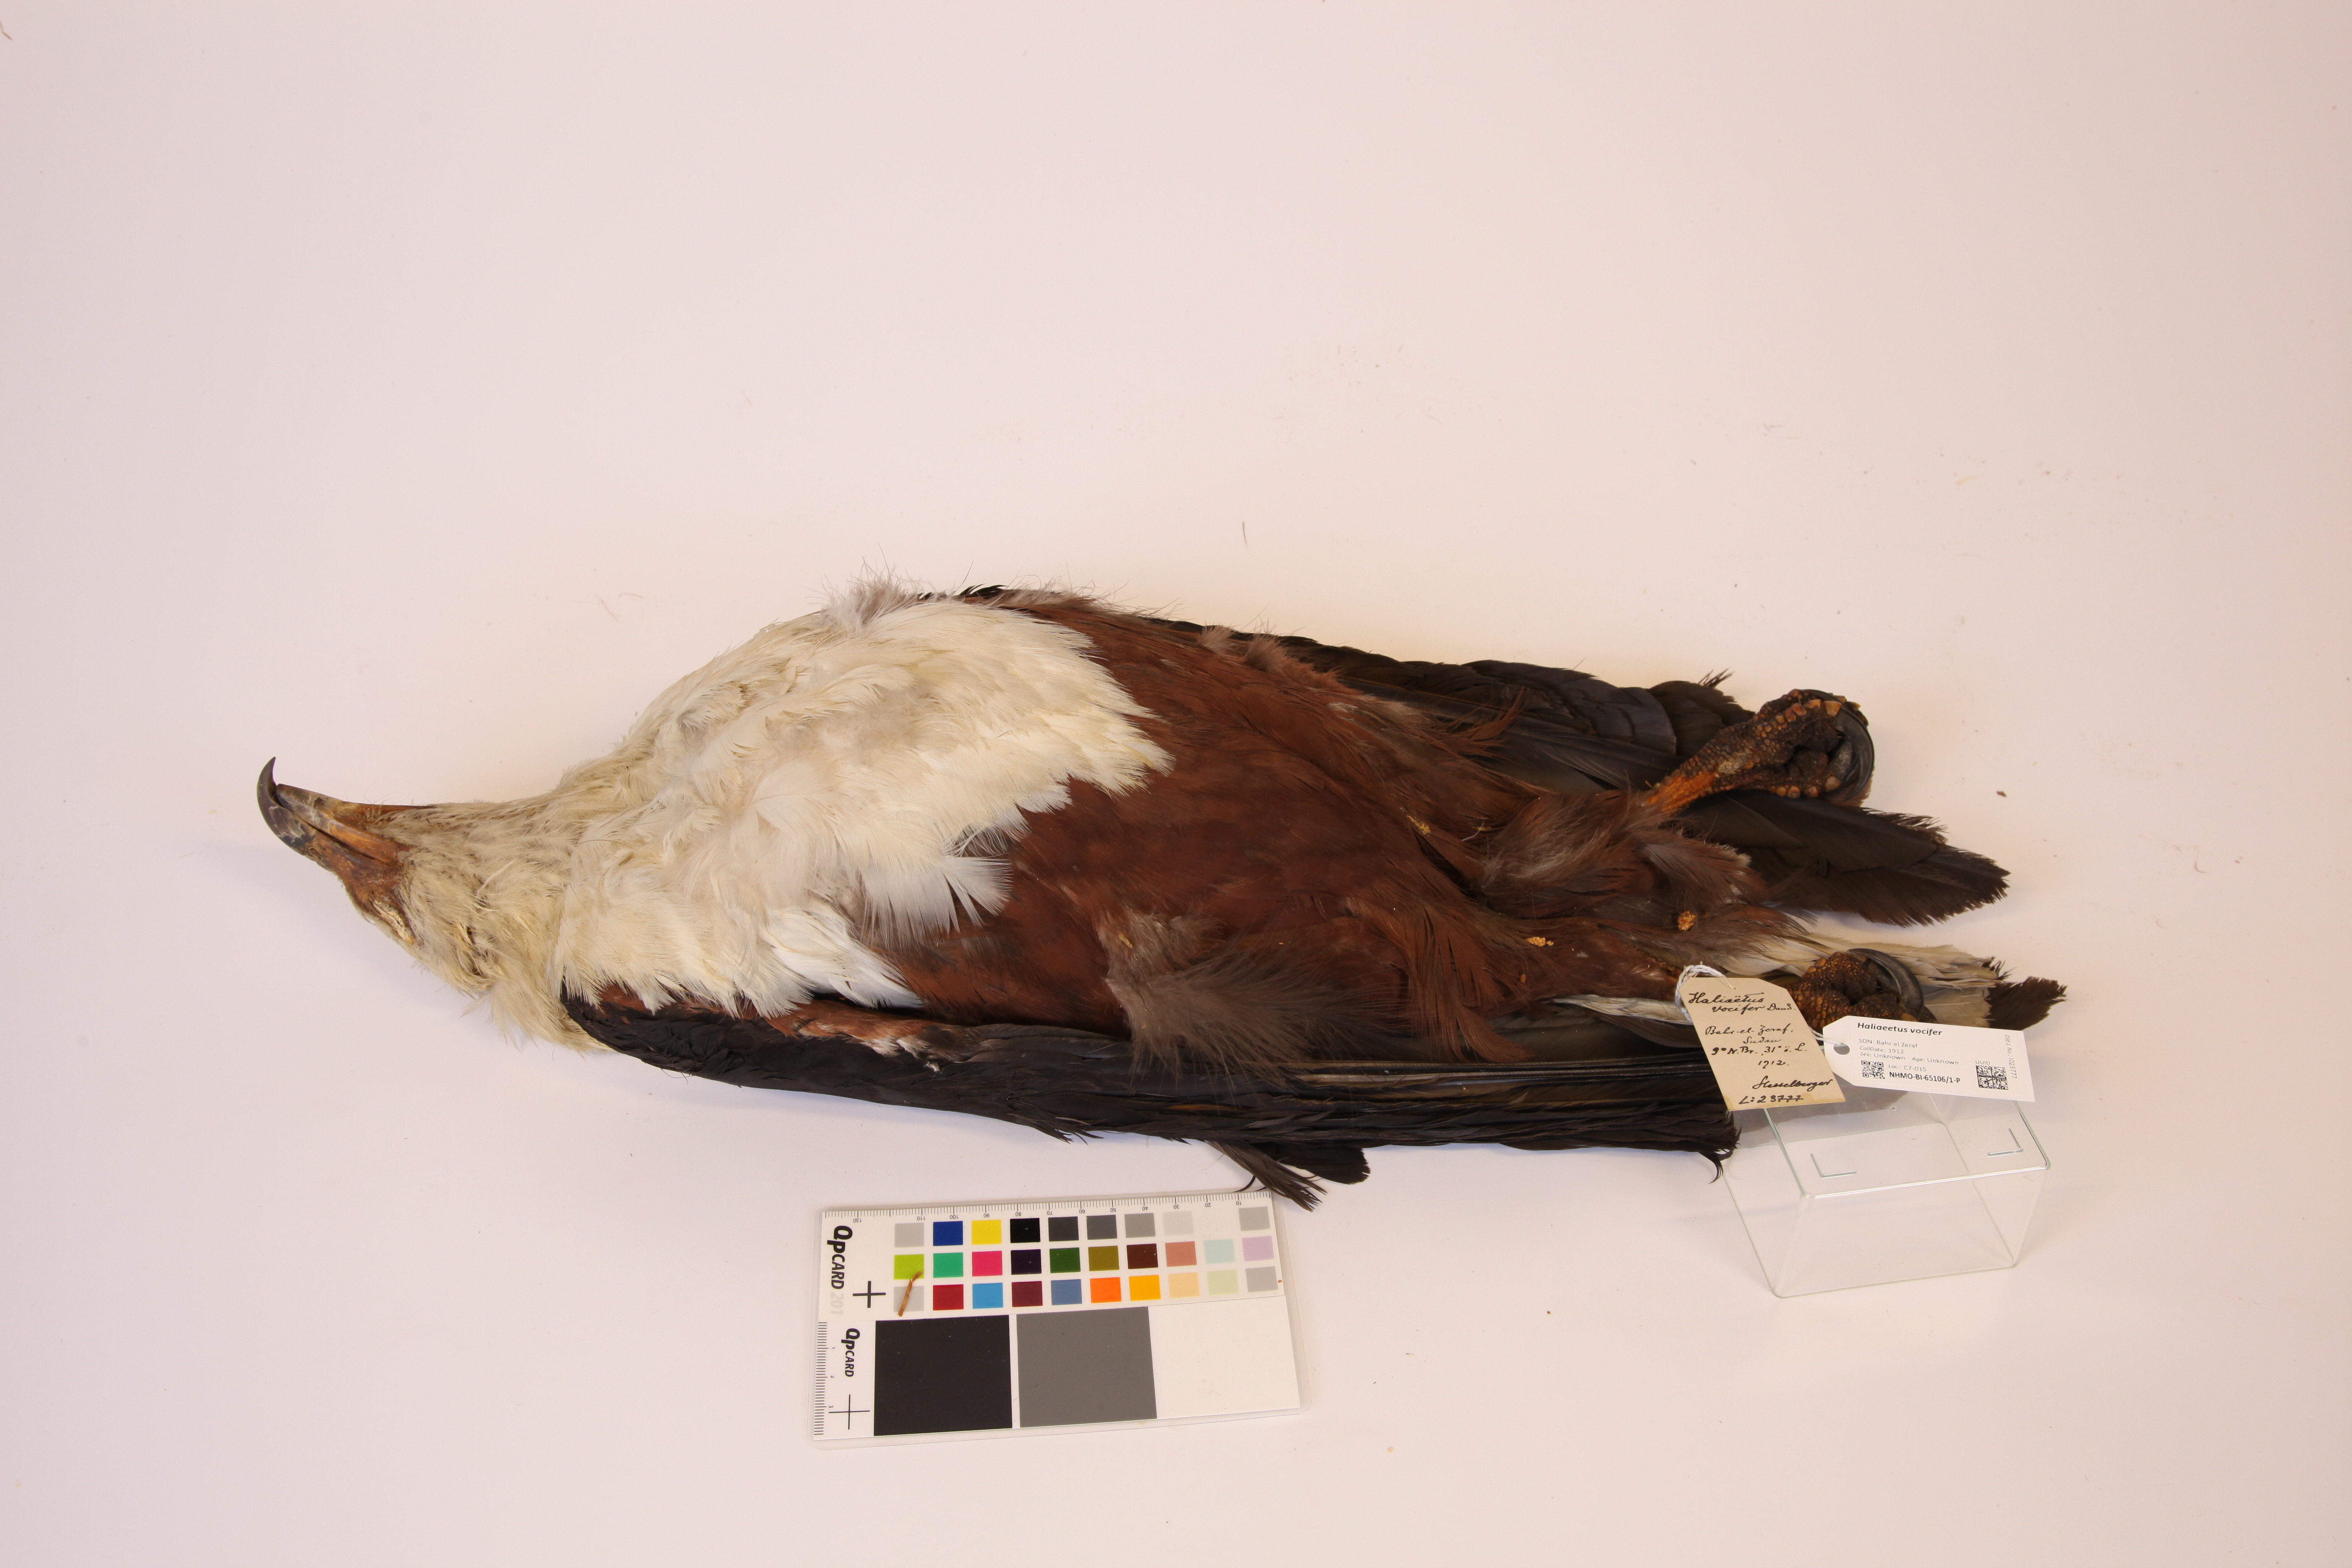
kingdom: Animalia
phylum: Chordata
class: Aves
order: Accipitriformes
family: Accipitridae
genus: Haliaeetus
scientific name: Haliaeetus vocifer
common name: African fish eagle
